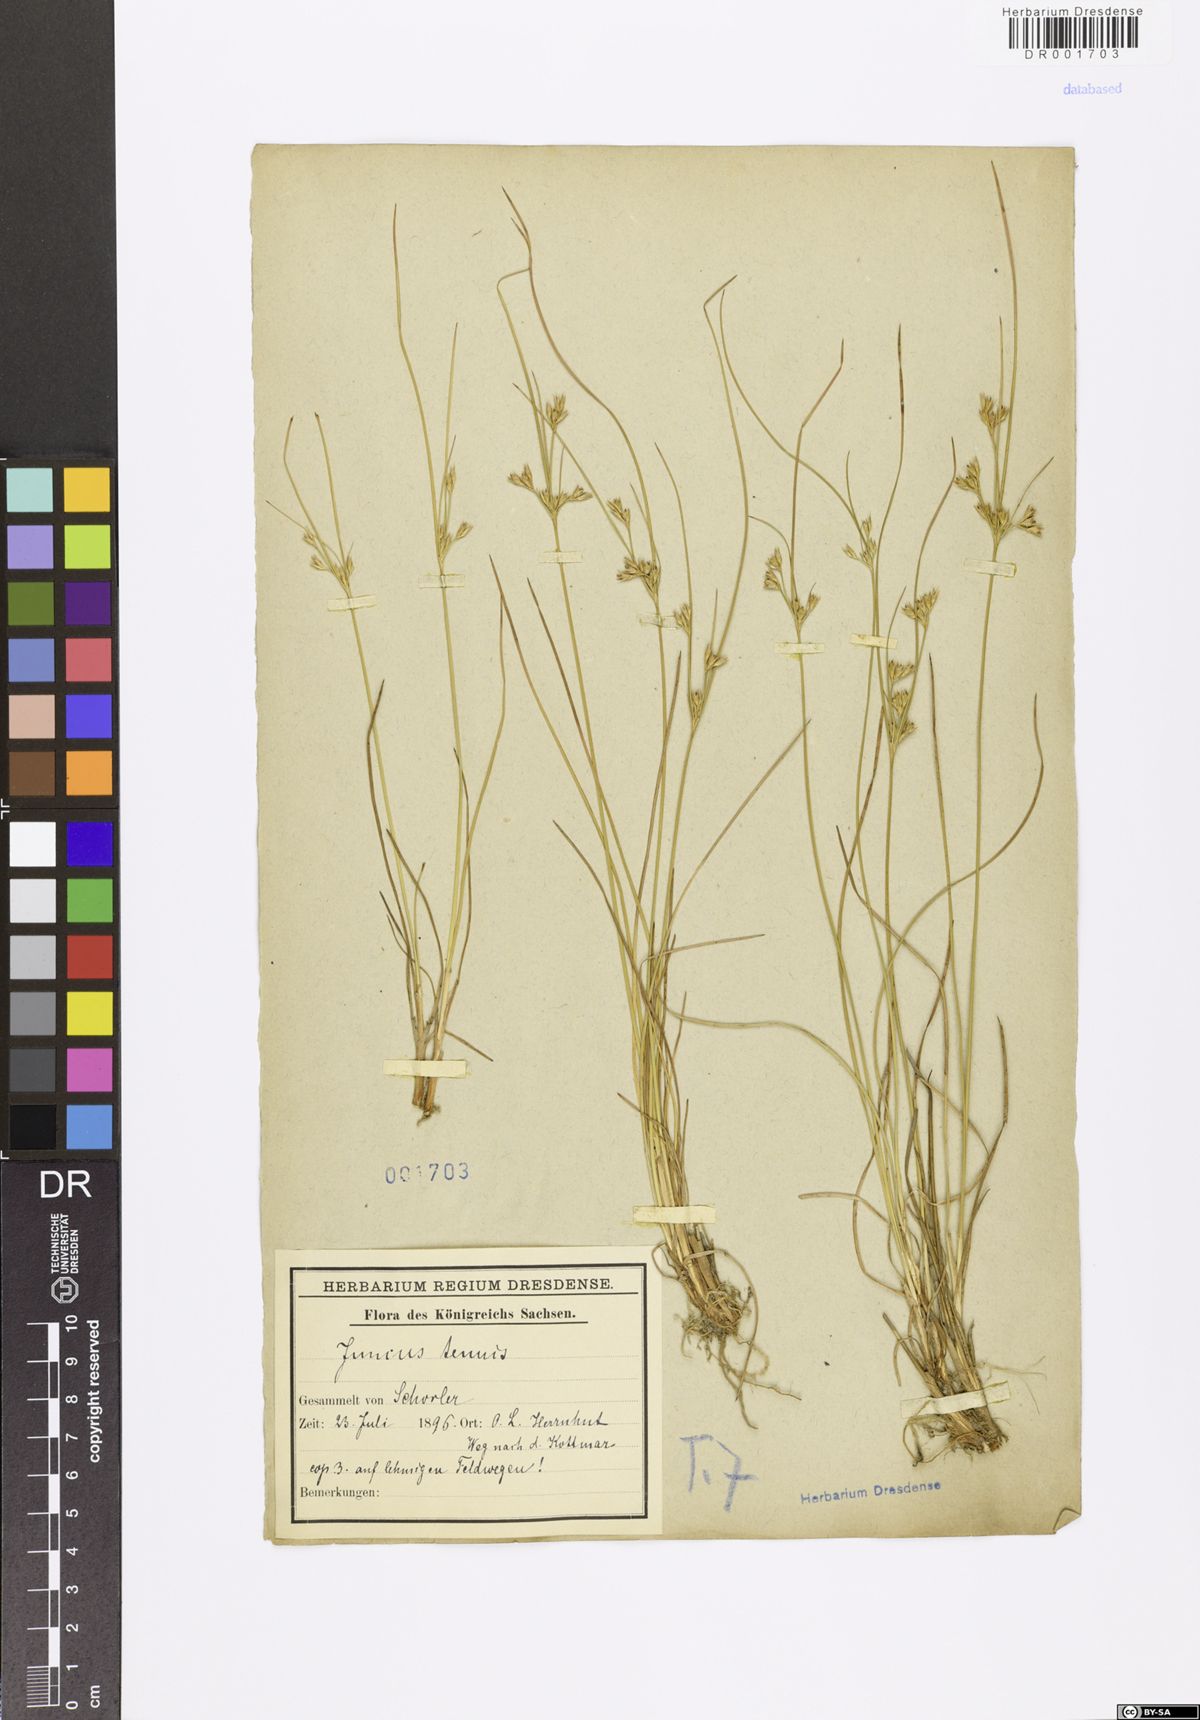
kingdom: Plantae
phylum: Tracheophyta
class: Liliopsida
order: Poales
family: Juncaceae
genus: Juncus
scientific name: Juncus tenuis
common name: Slender rush
